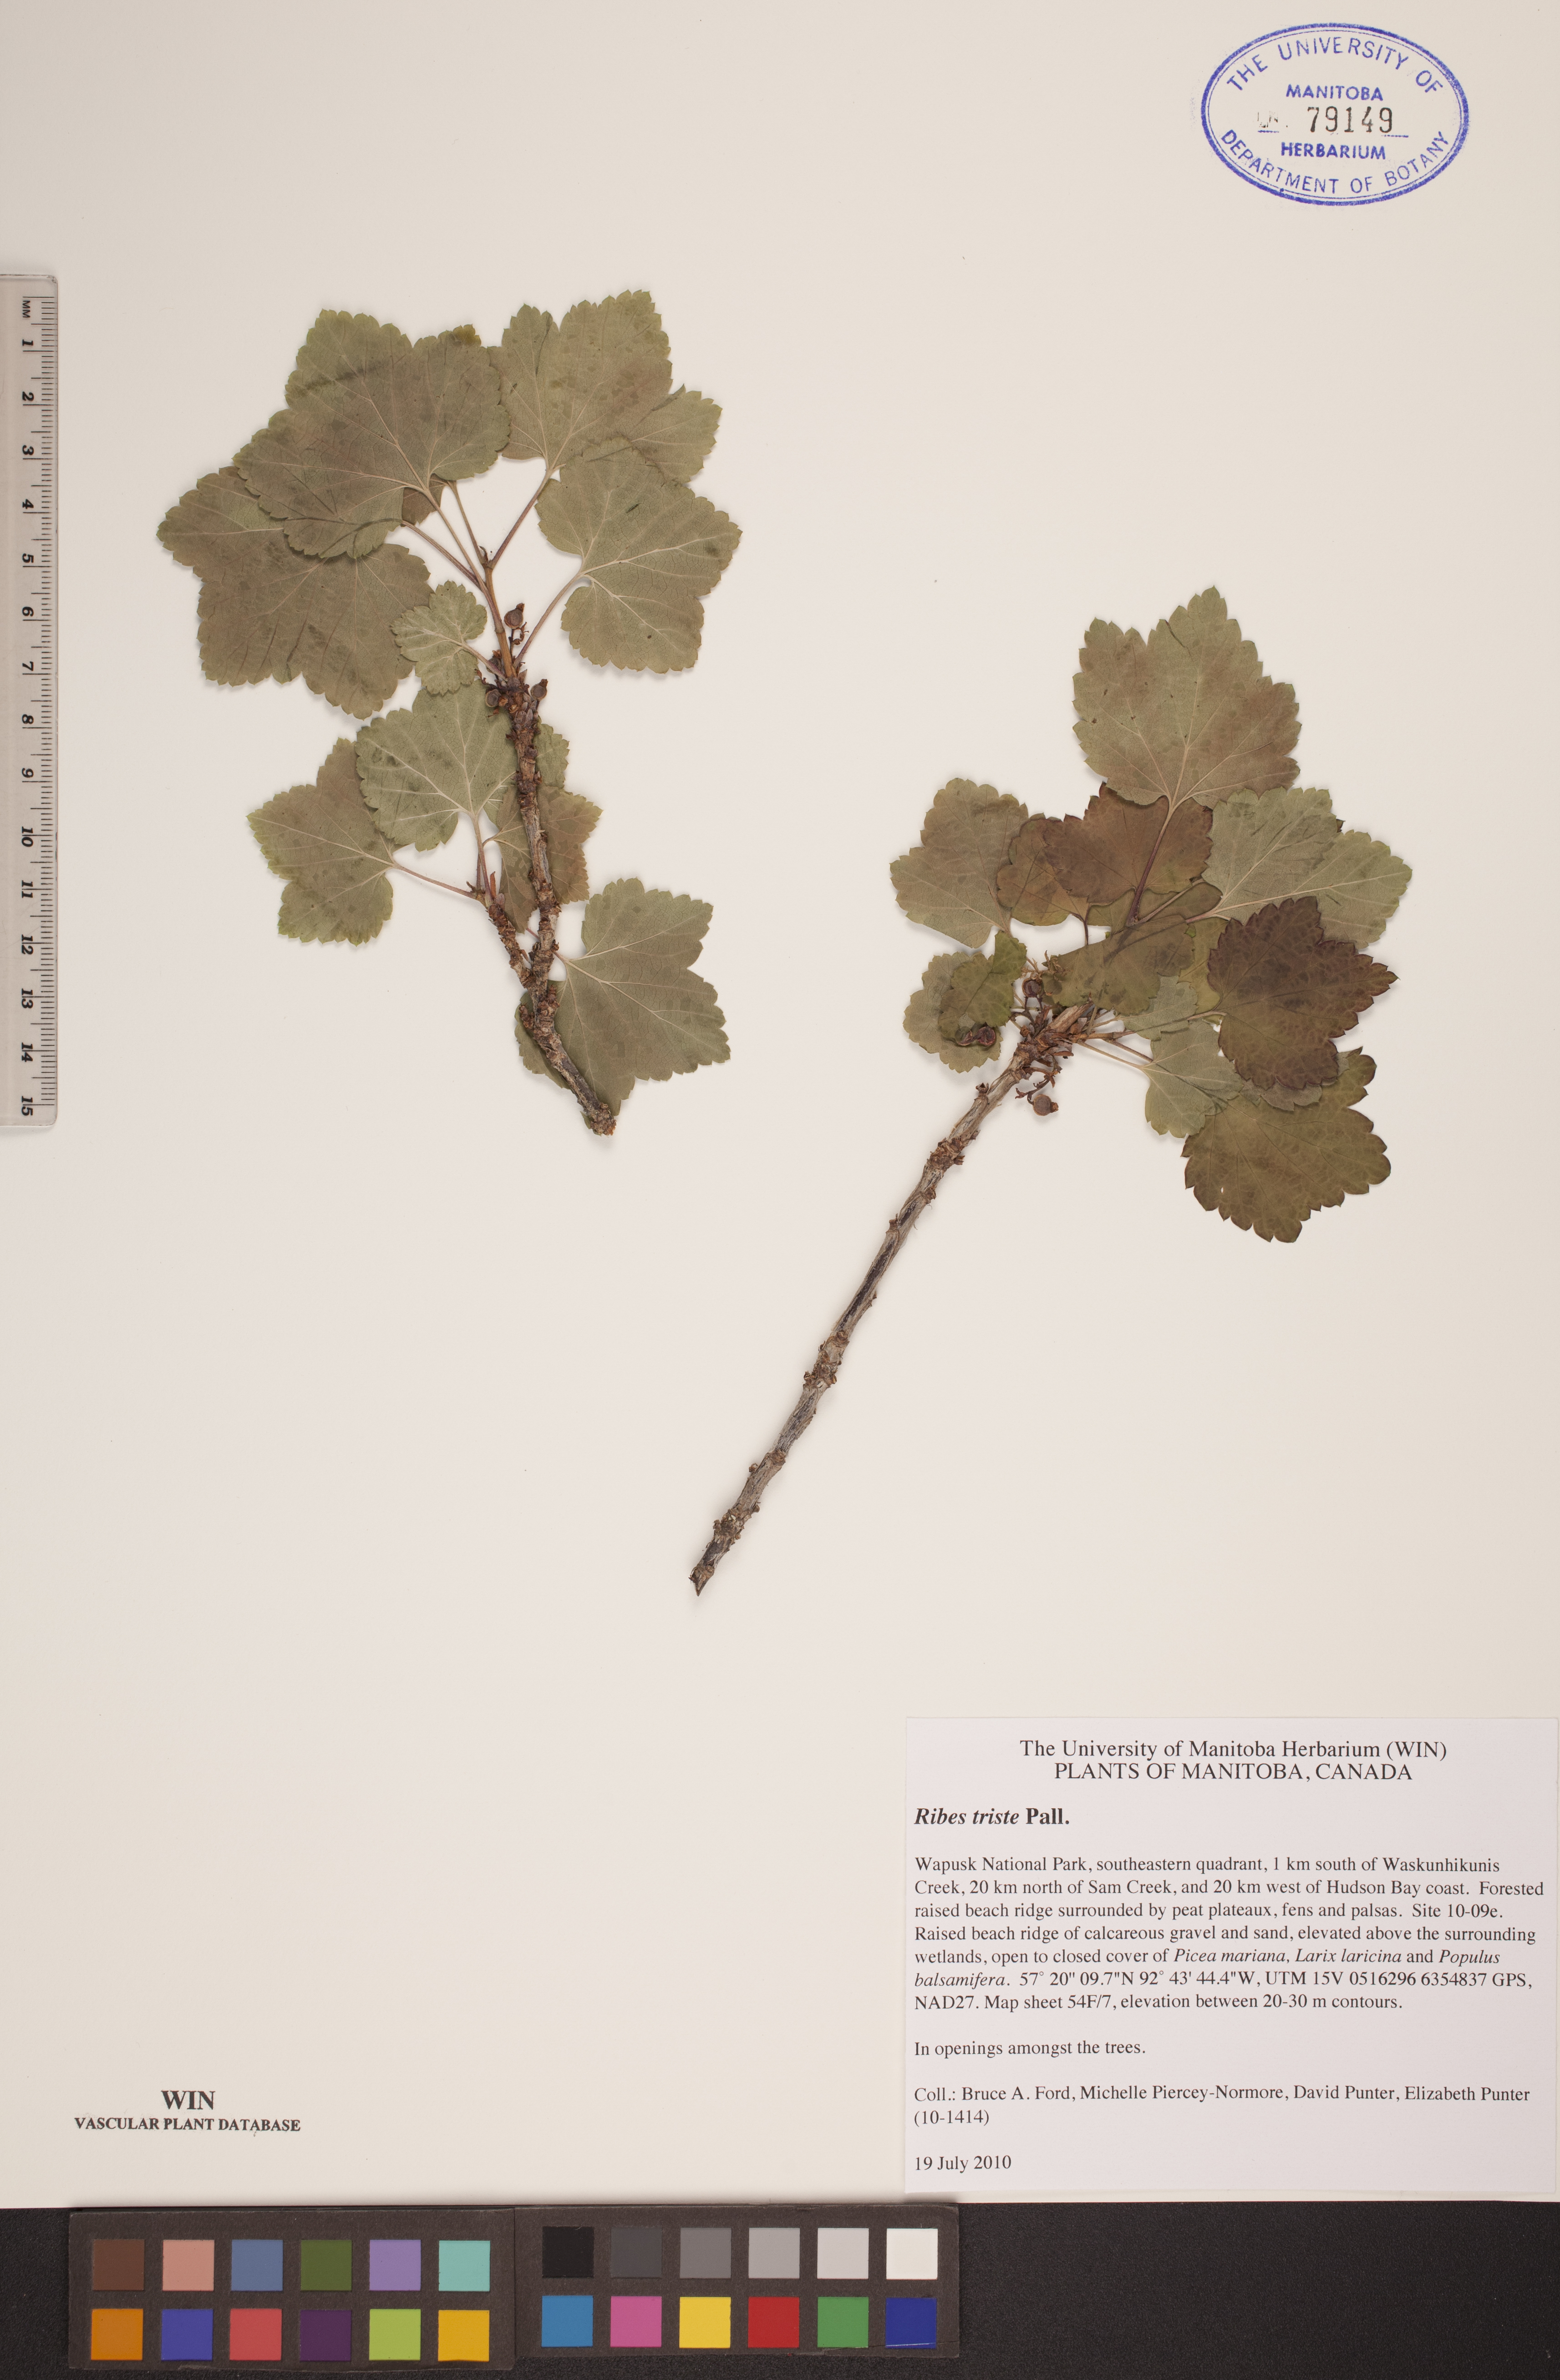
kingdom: Plantae
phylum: Tracheophyta
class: Magnoliopsida
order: Saxifragales
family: Grossulariaceae
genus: Ribes
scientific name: Ribes triste
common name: Swamp red currant
